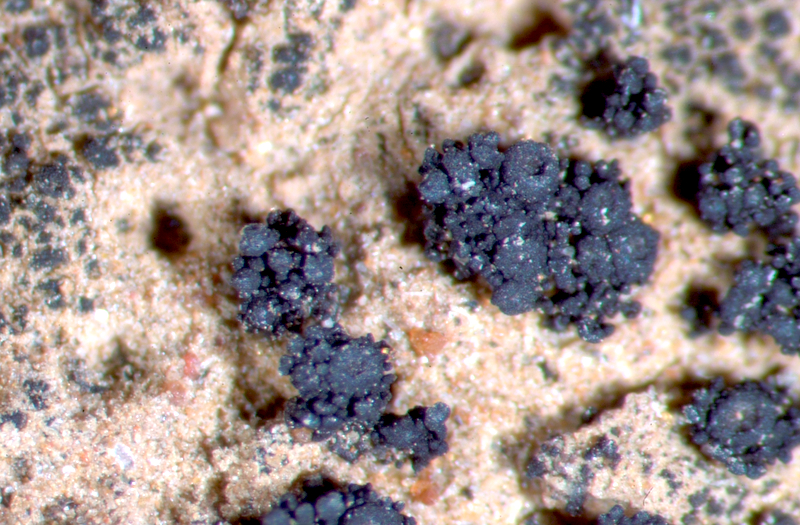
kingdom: Fungi
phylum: Ascomycota
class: Lichinomycetes
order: Lichinales
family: Peltulaceae
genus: Peltula
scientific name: Peltula
